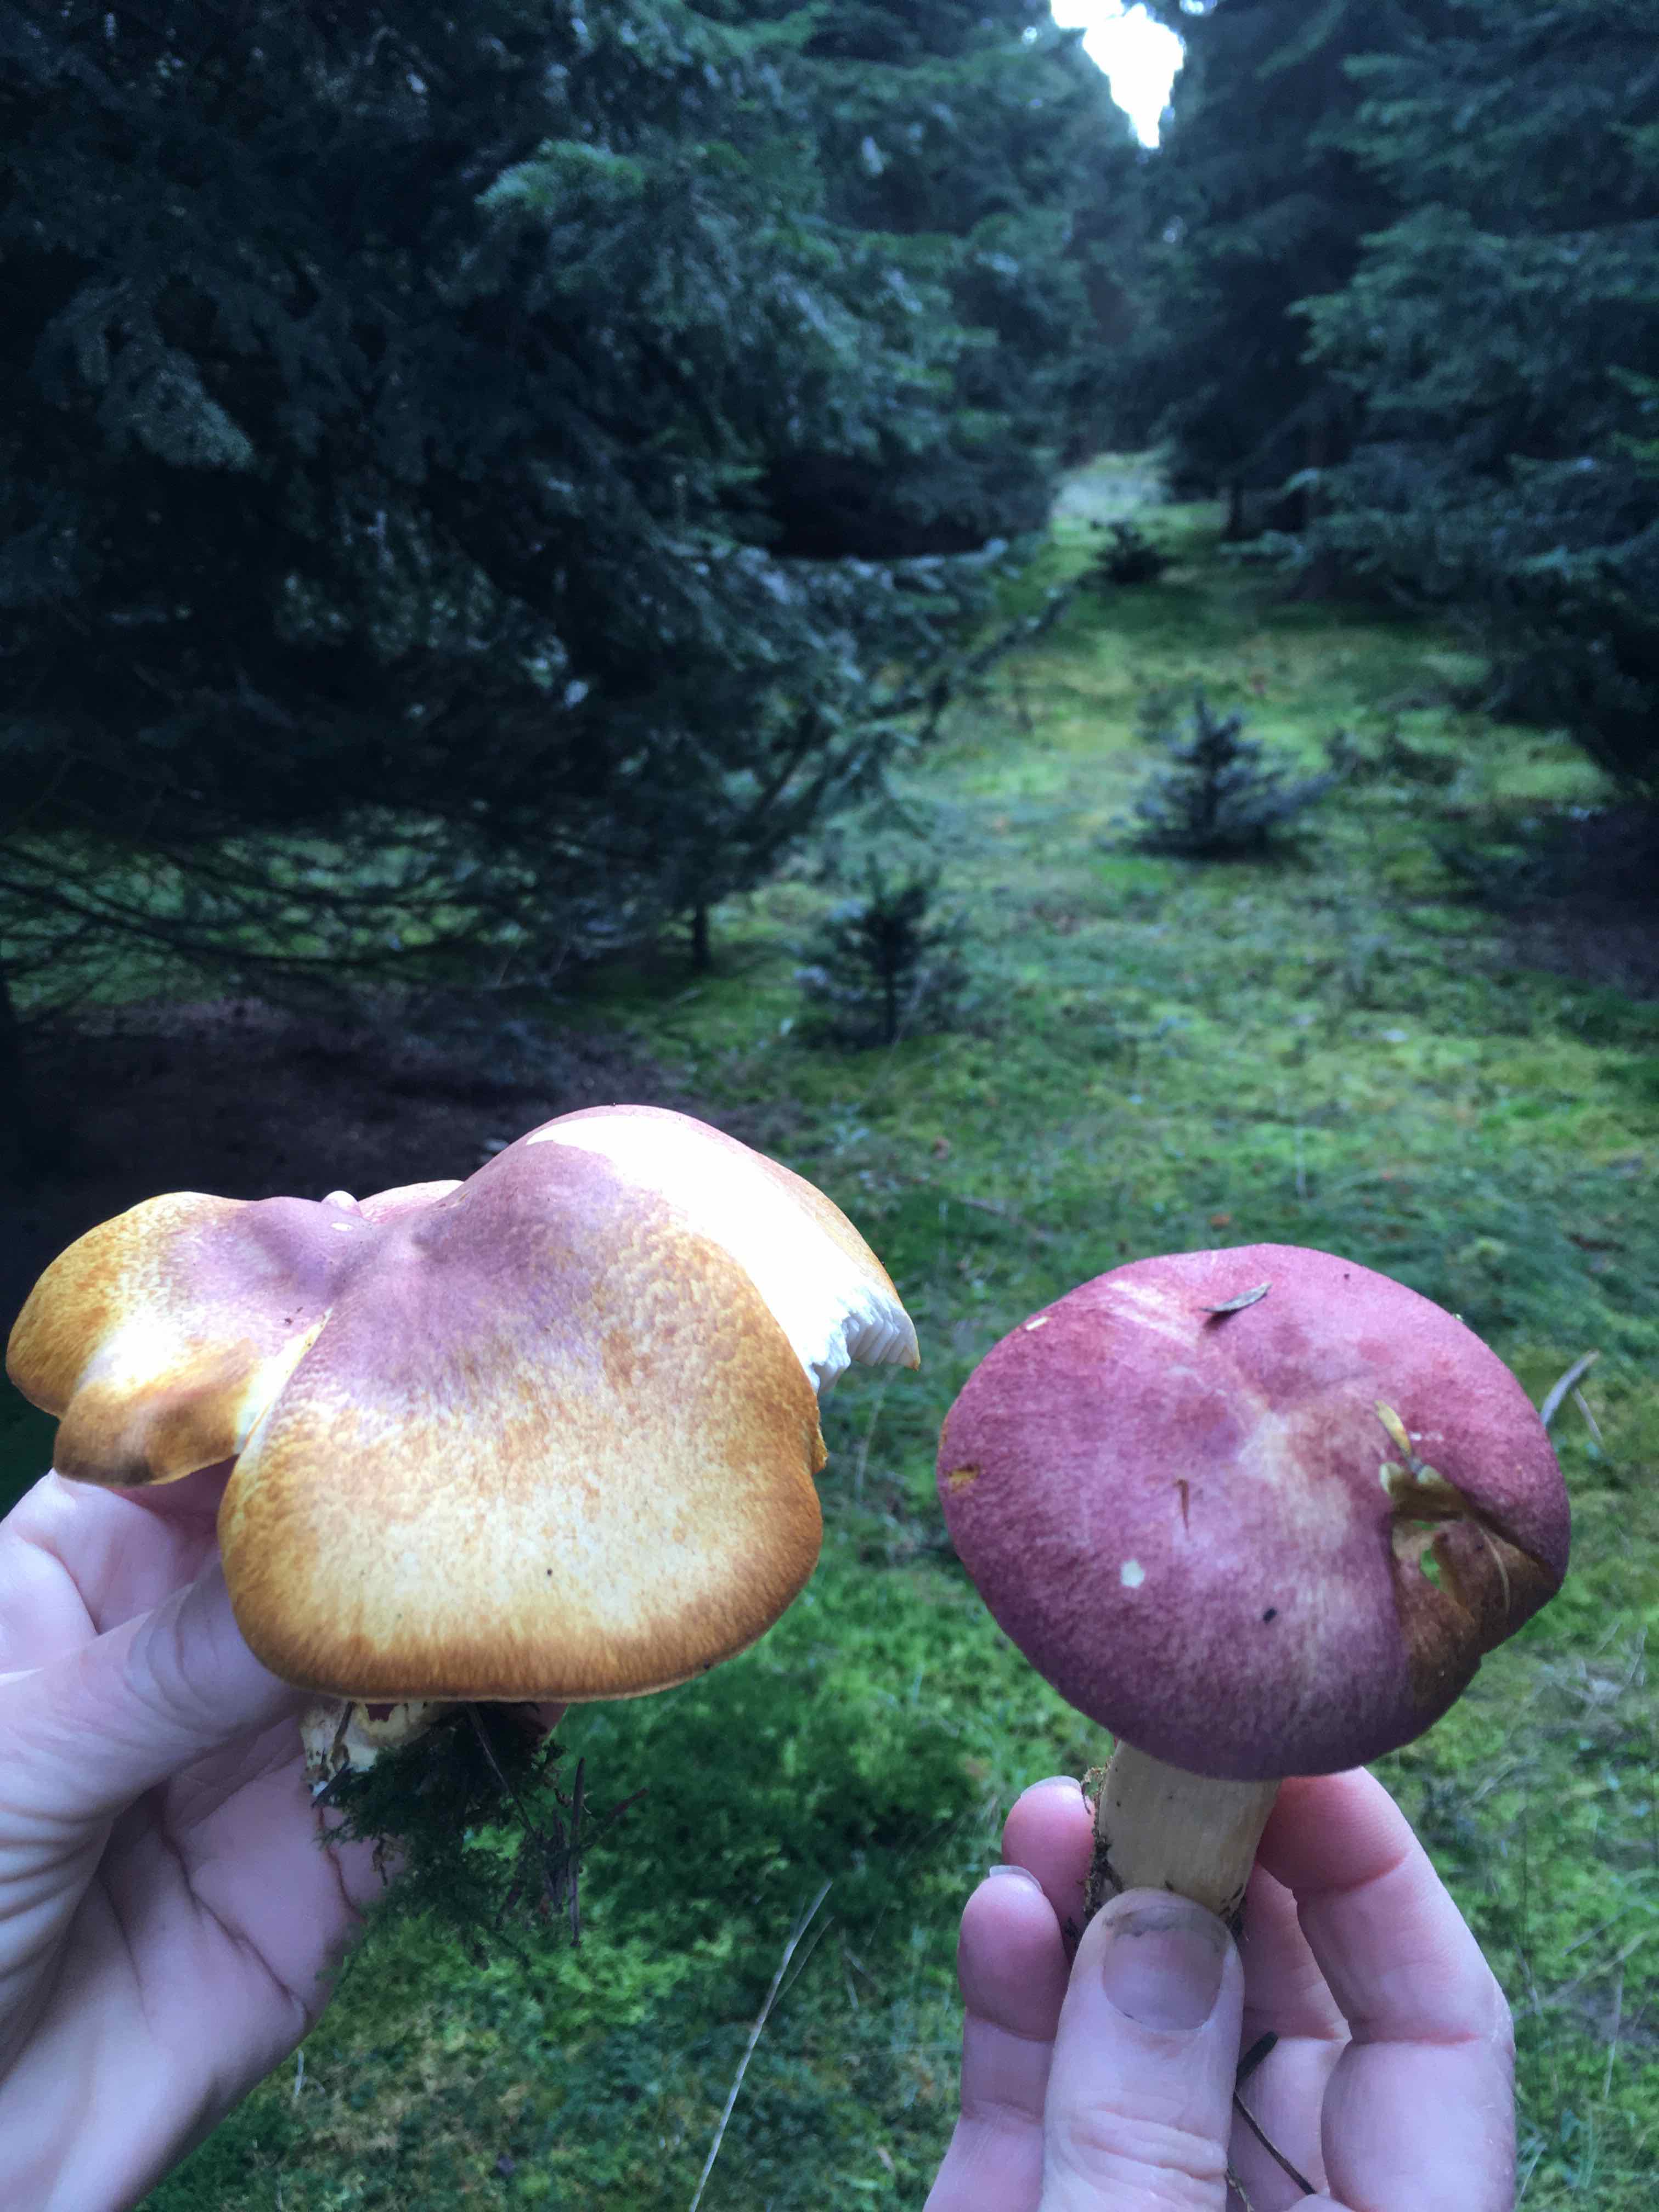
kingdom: Fungi
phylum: Basidiomycota
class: Agaricomycetes
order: Agaricales
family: Tricholomataceae
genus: Tricholomopsis
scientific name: Tricholomopsis rutilans
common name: purpur-væbnerhat
